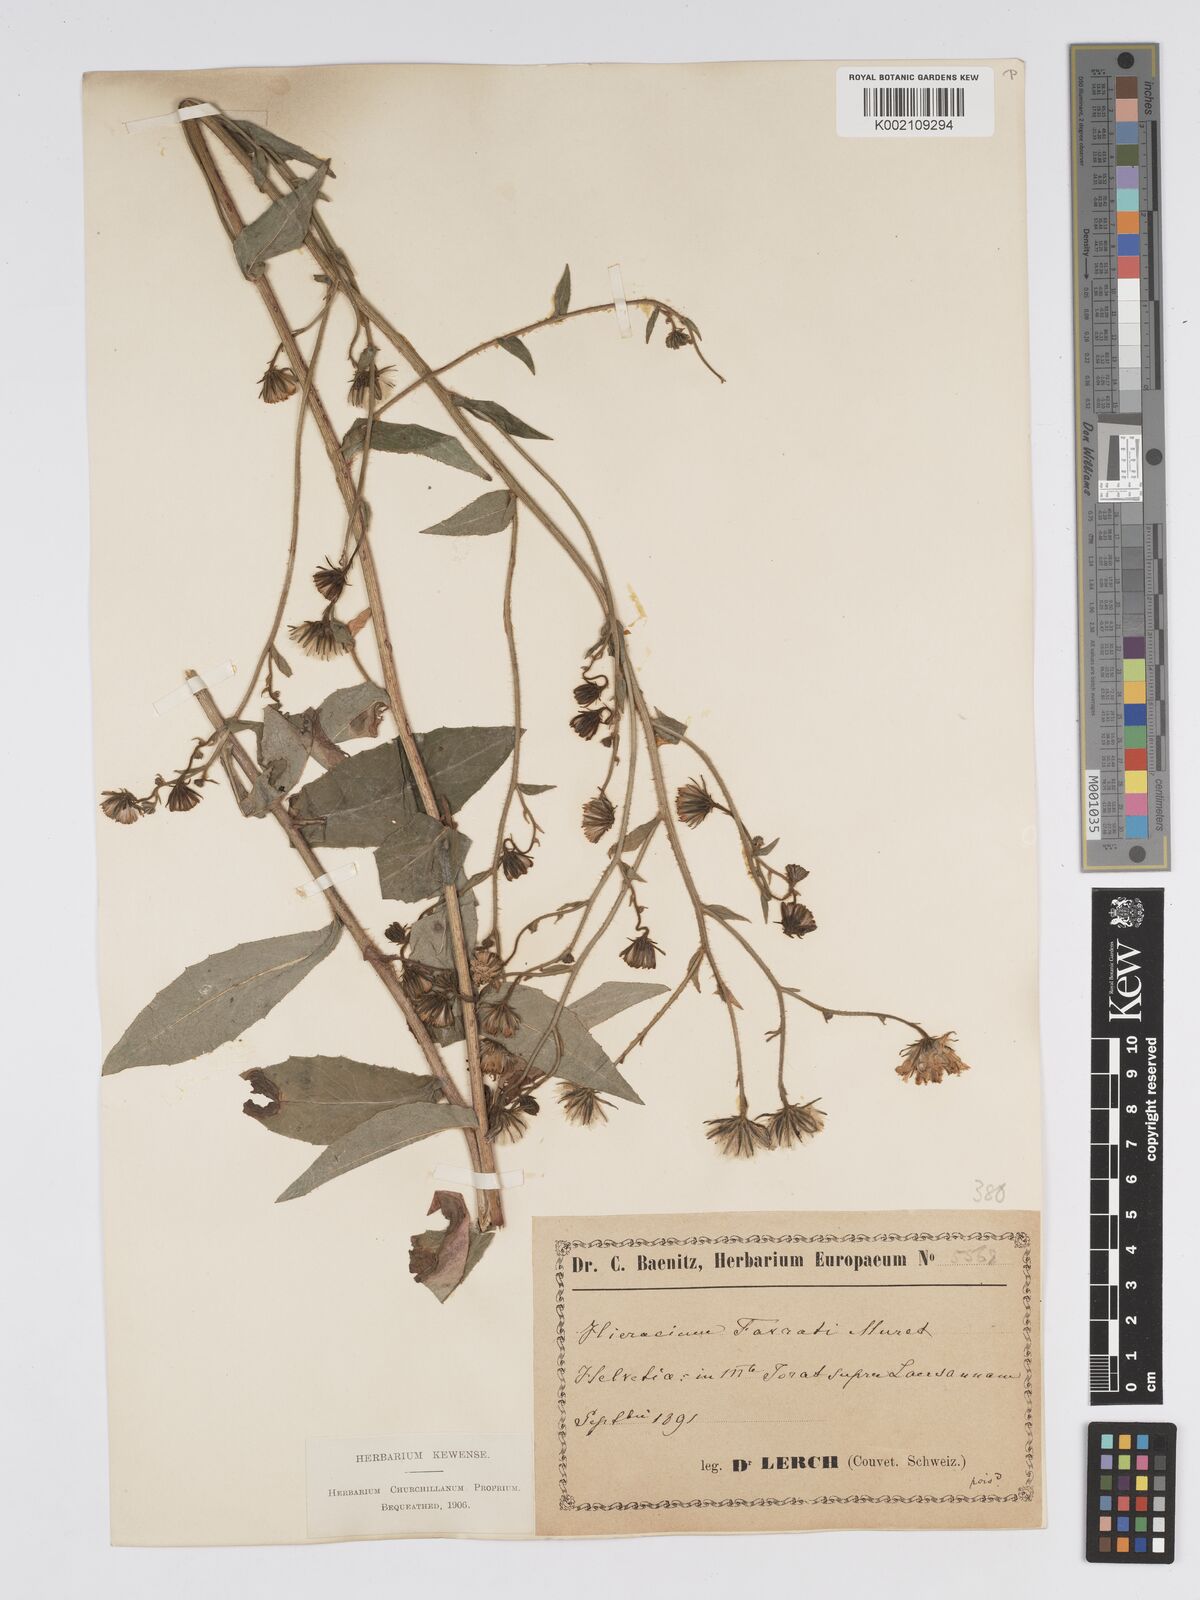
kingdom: Plantae
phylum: Tracheophyta
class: Magnoliopsida
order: Asterales
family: Asteraceae
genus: Hieracium
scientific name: Hieracium favratii
